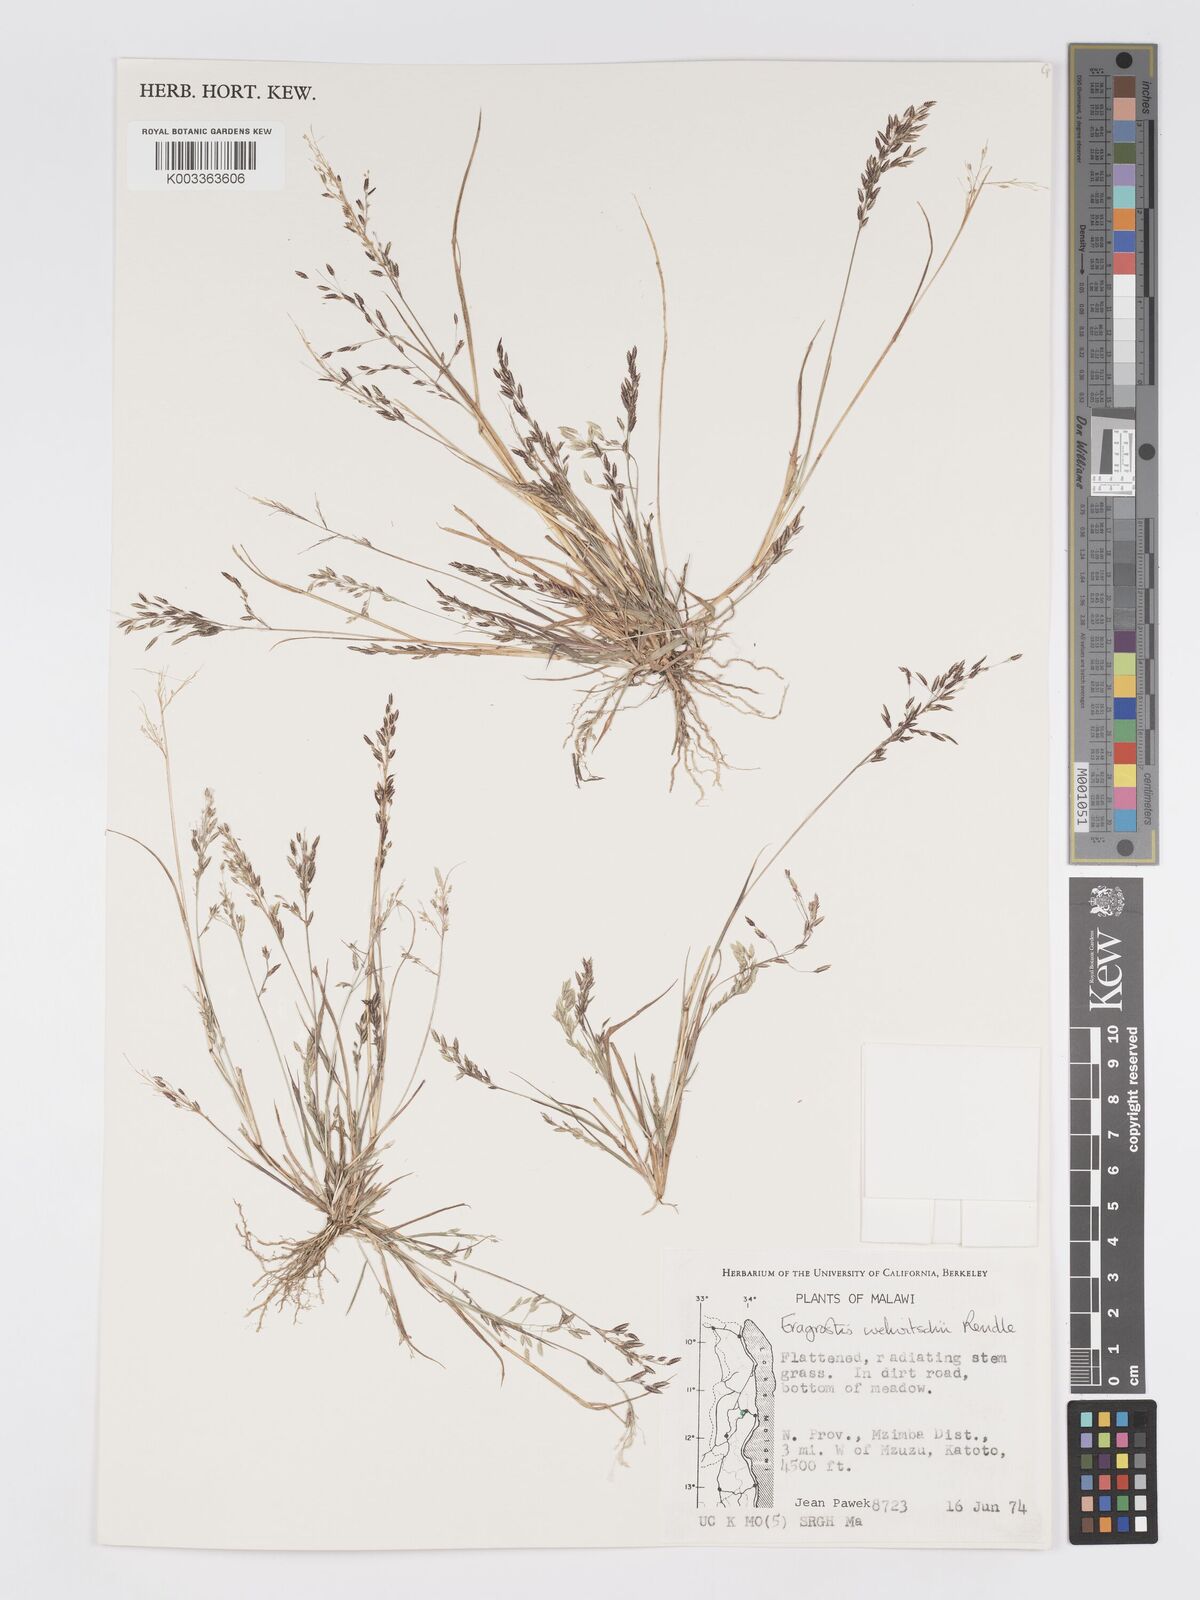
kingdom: Plantae
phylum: Tracheophyta
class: Liliopsida
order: Poales
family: Poaceae
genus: Eragrostis
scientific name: Eragrostis welwitschii
